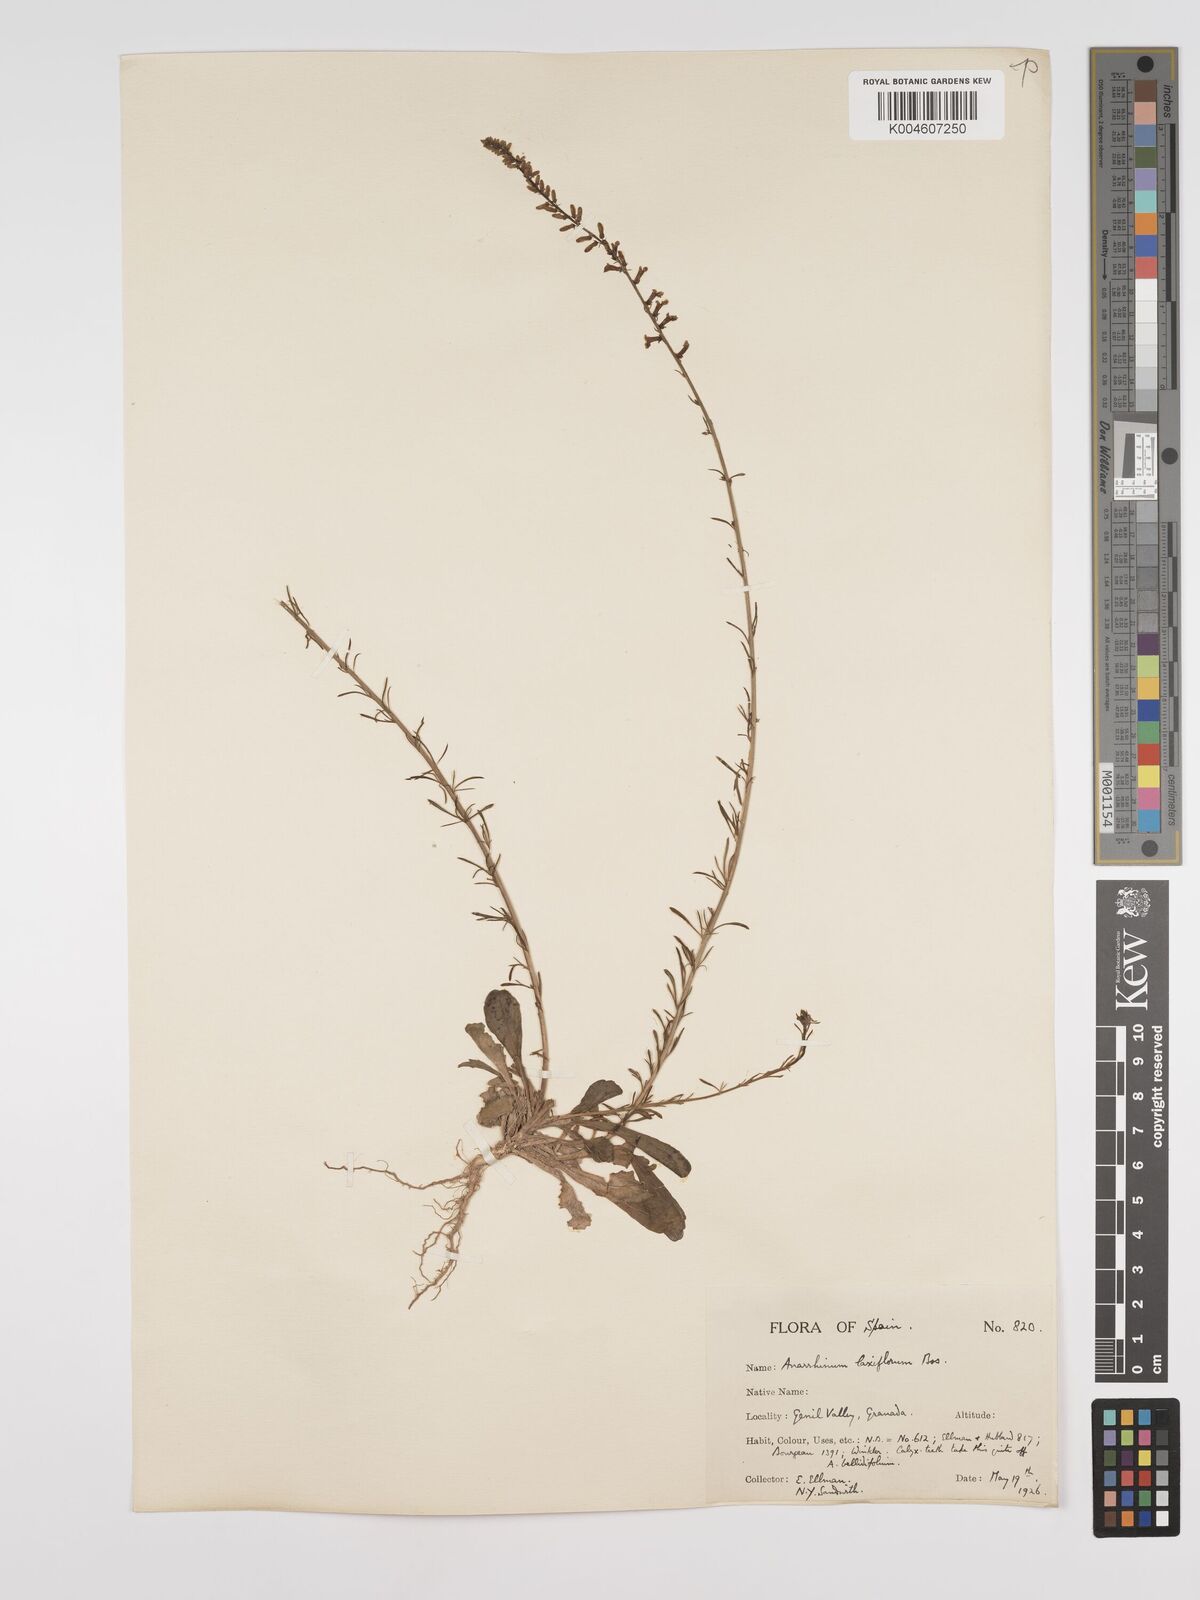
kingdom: Plantae
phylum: Tracheophyta
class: Magnoliopsida
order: Lamiales
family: Plantaginaceae
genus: Anarrhinum
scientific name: Anarrhinum laxiflorum
